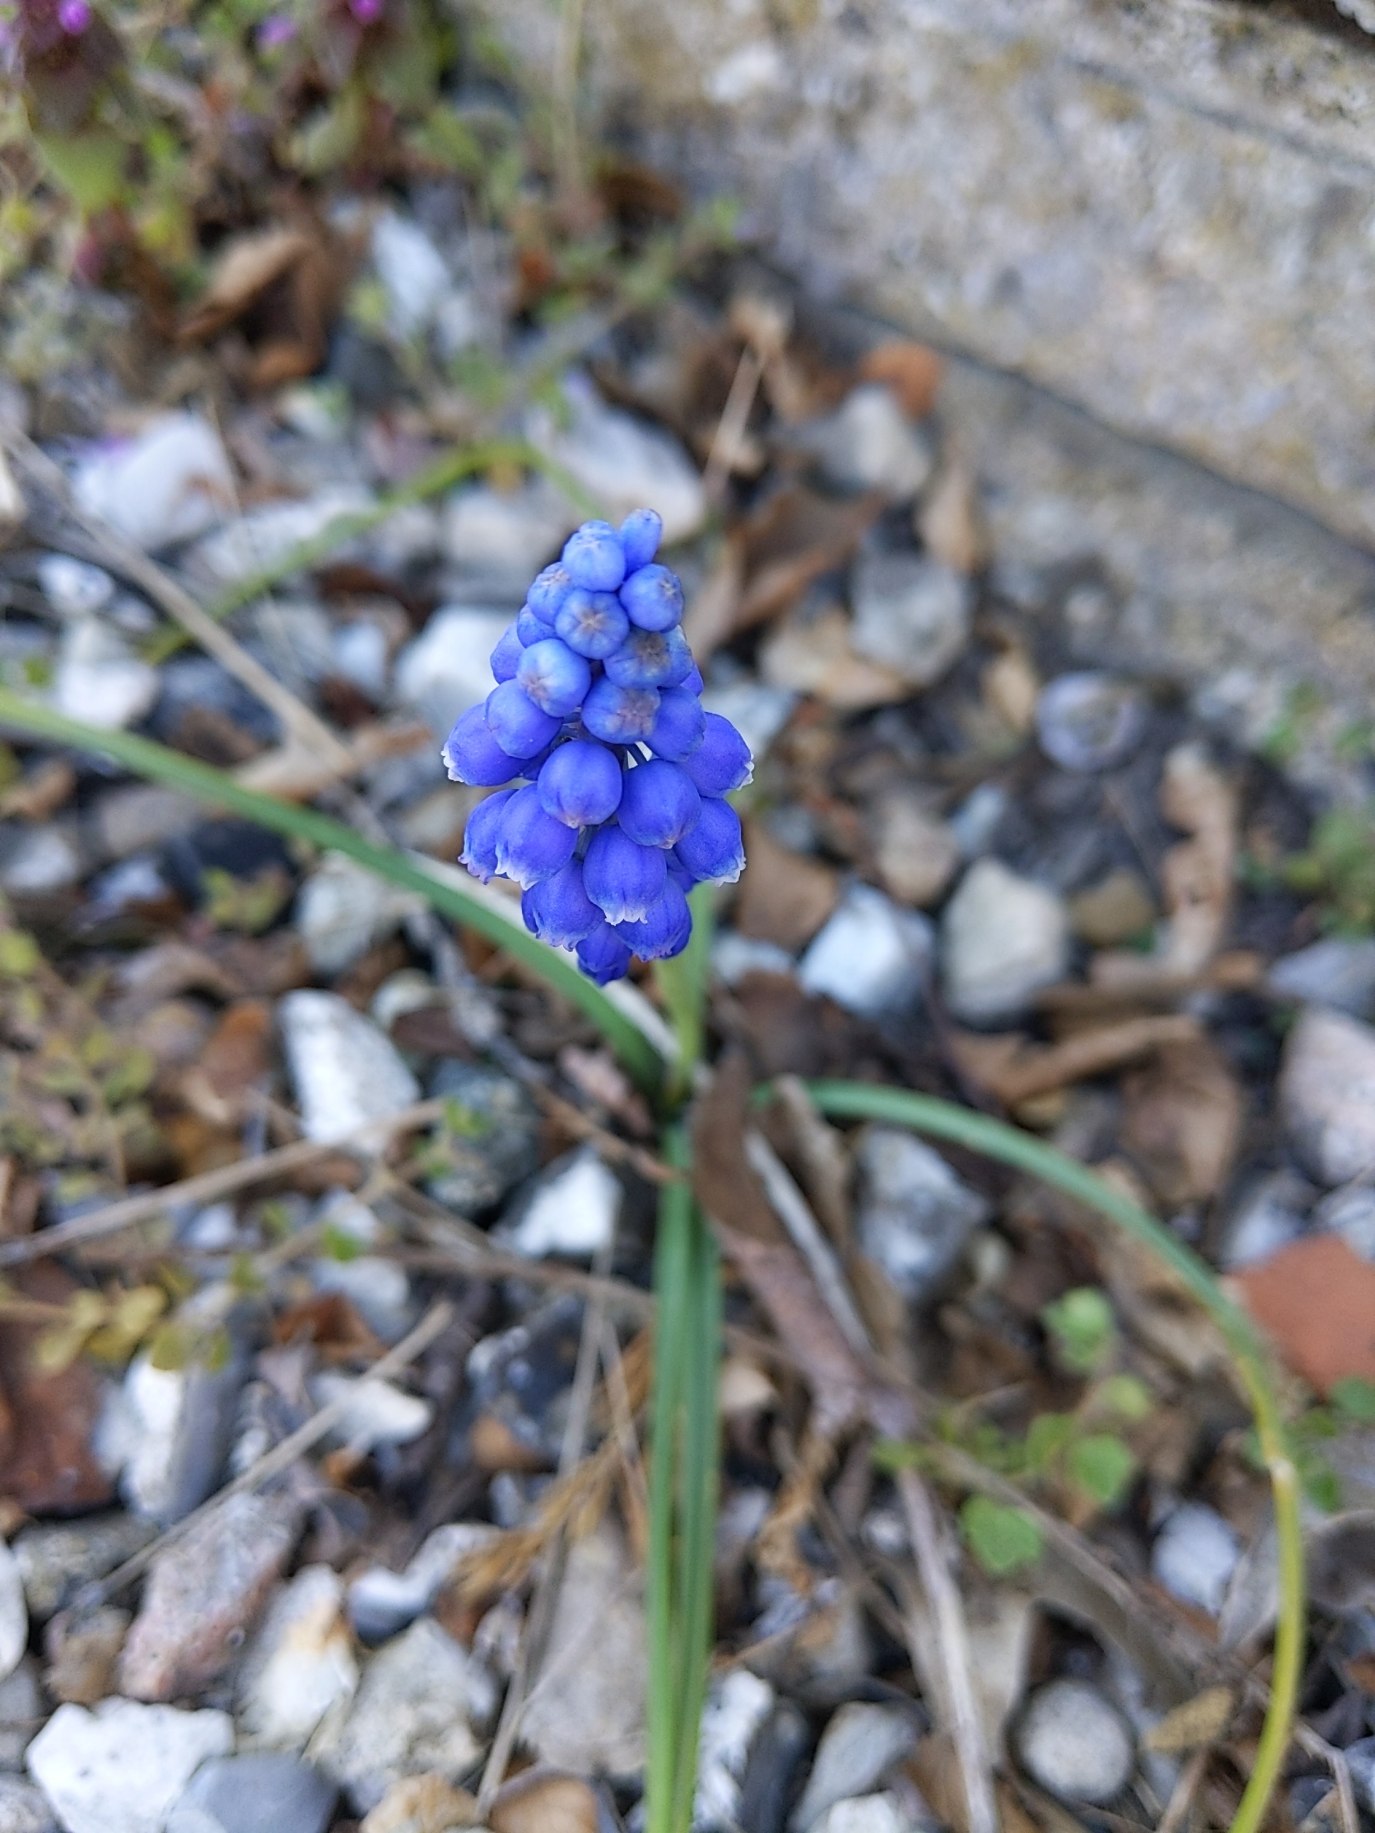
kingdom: Plantae
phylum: Tracheophyta
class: Liliopsida
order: Asparagales
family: Asparagaceae
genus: Muscari
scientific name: Muscari armeniacum
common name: Armensk perlehyacint
